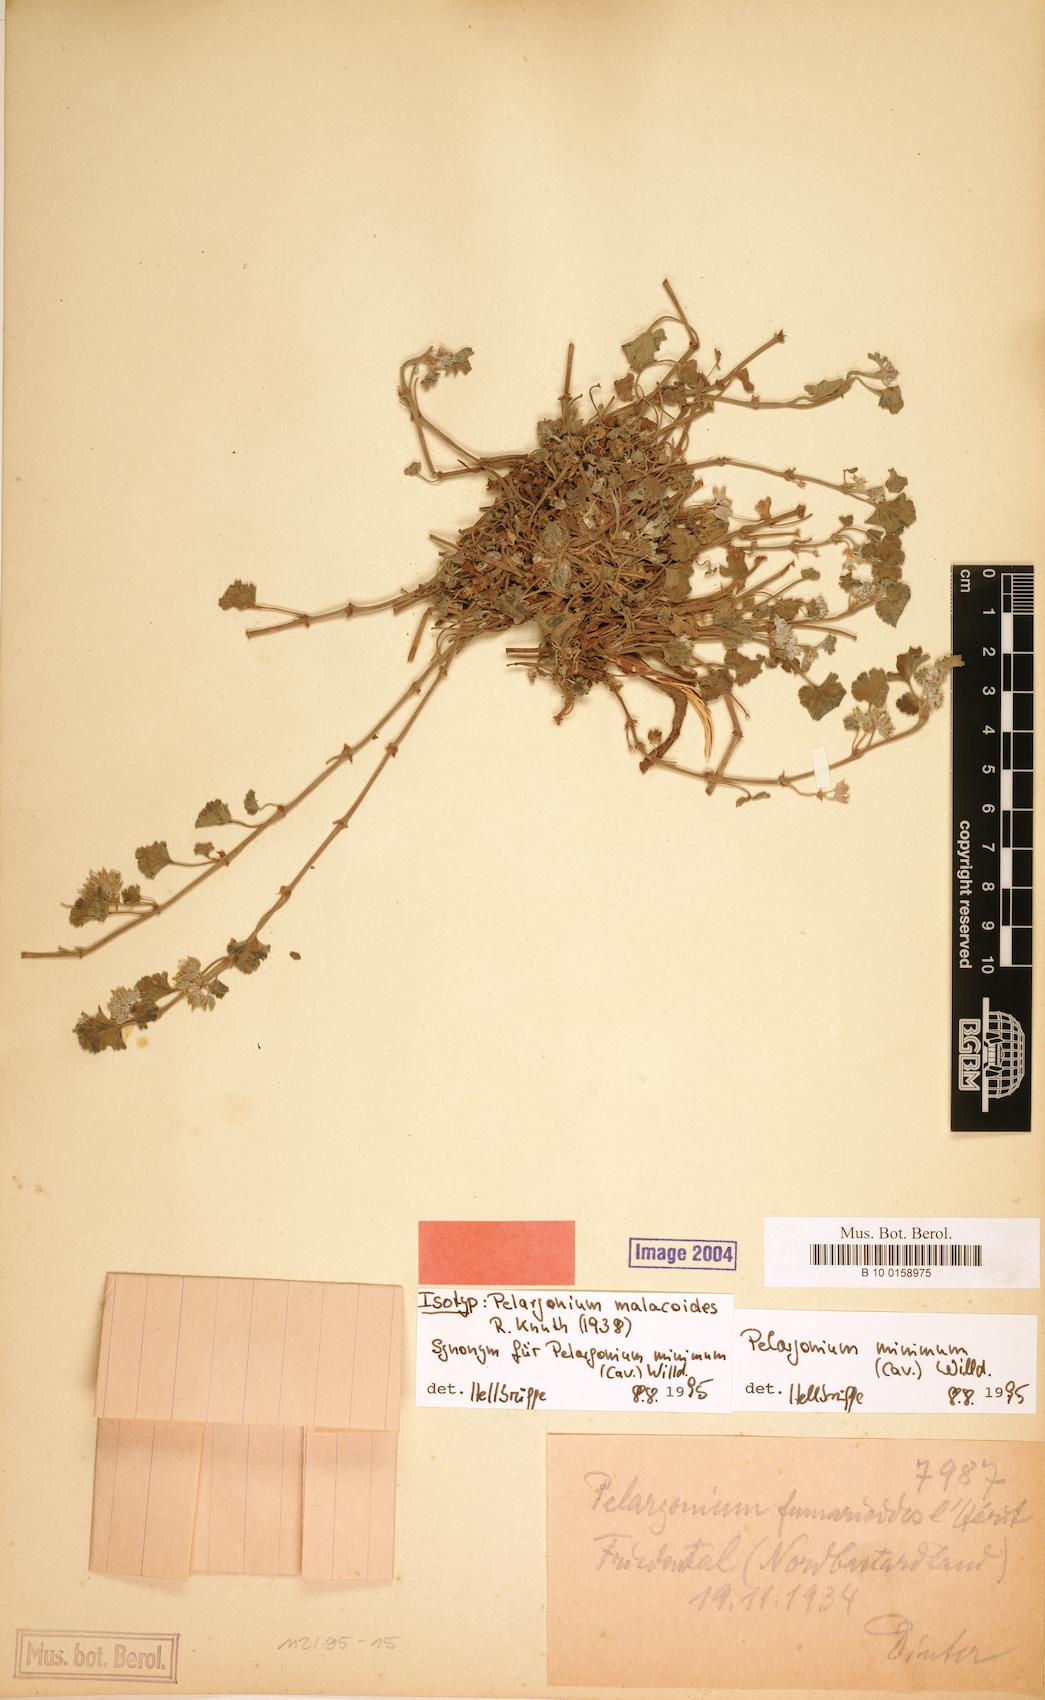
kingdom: Plantae
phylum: Tracheophyta
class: Magnoliopsida
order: Geraniales
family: Geraniaceae
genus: Pelargonium
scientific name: Pelargonium nanum
